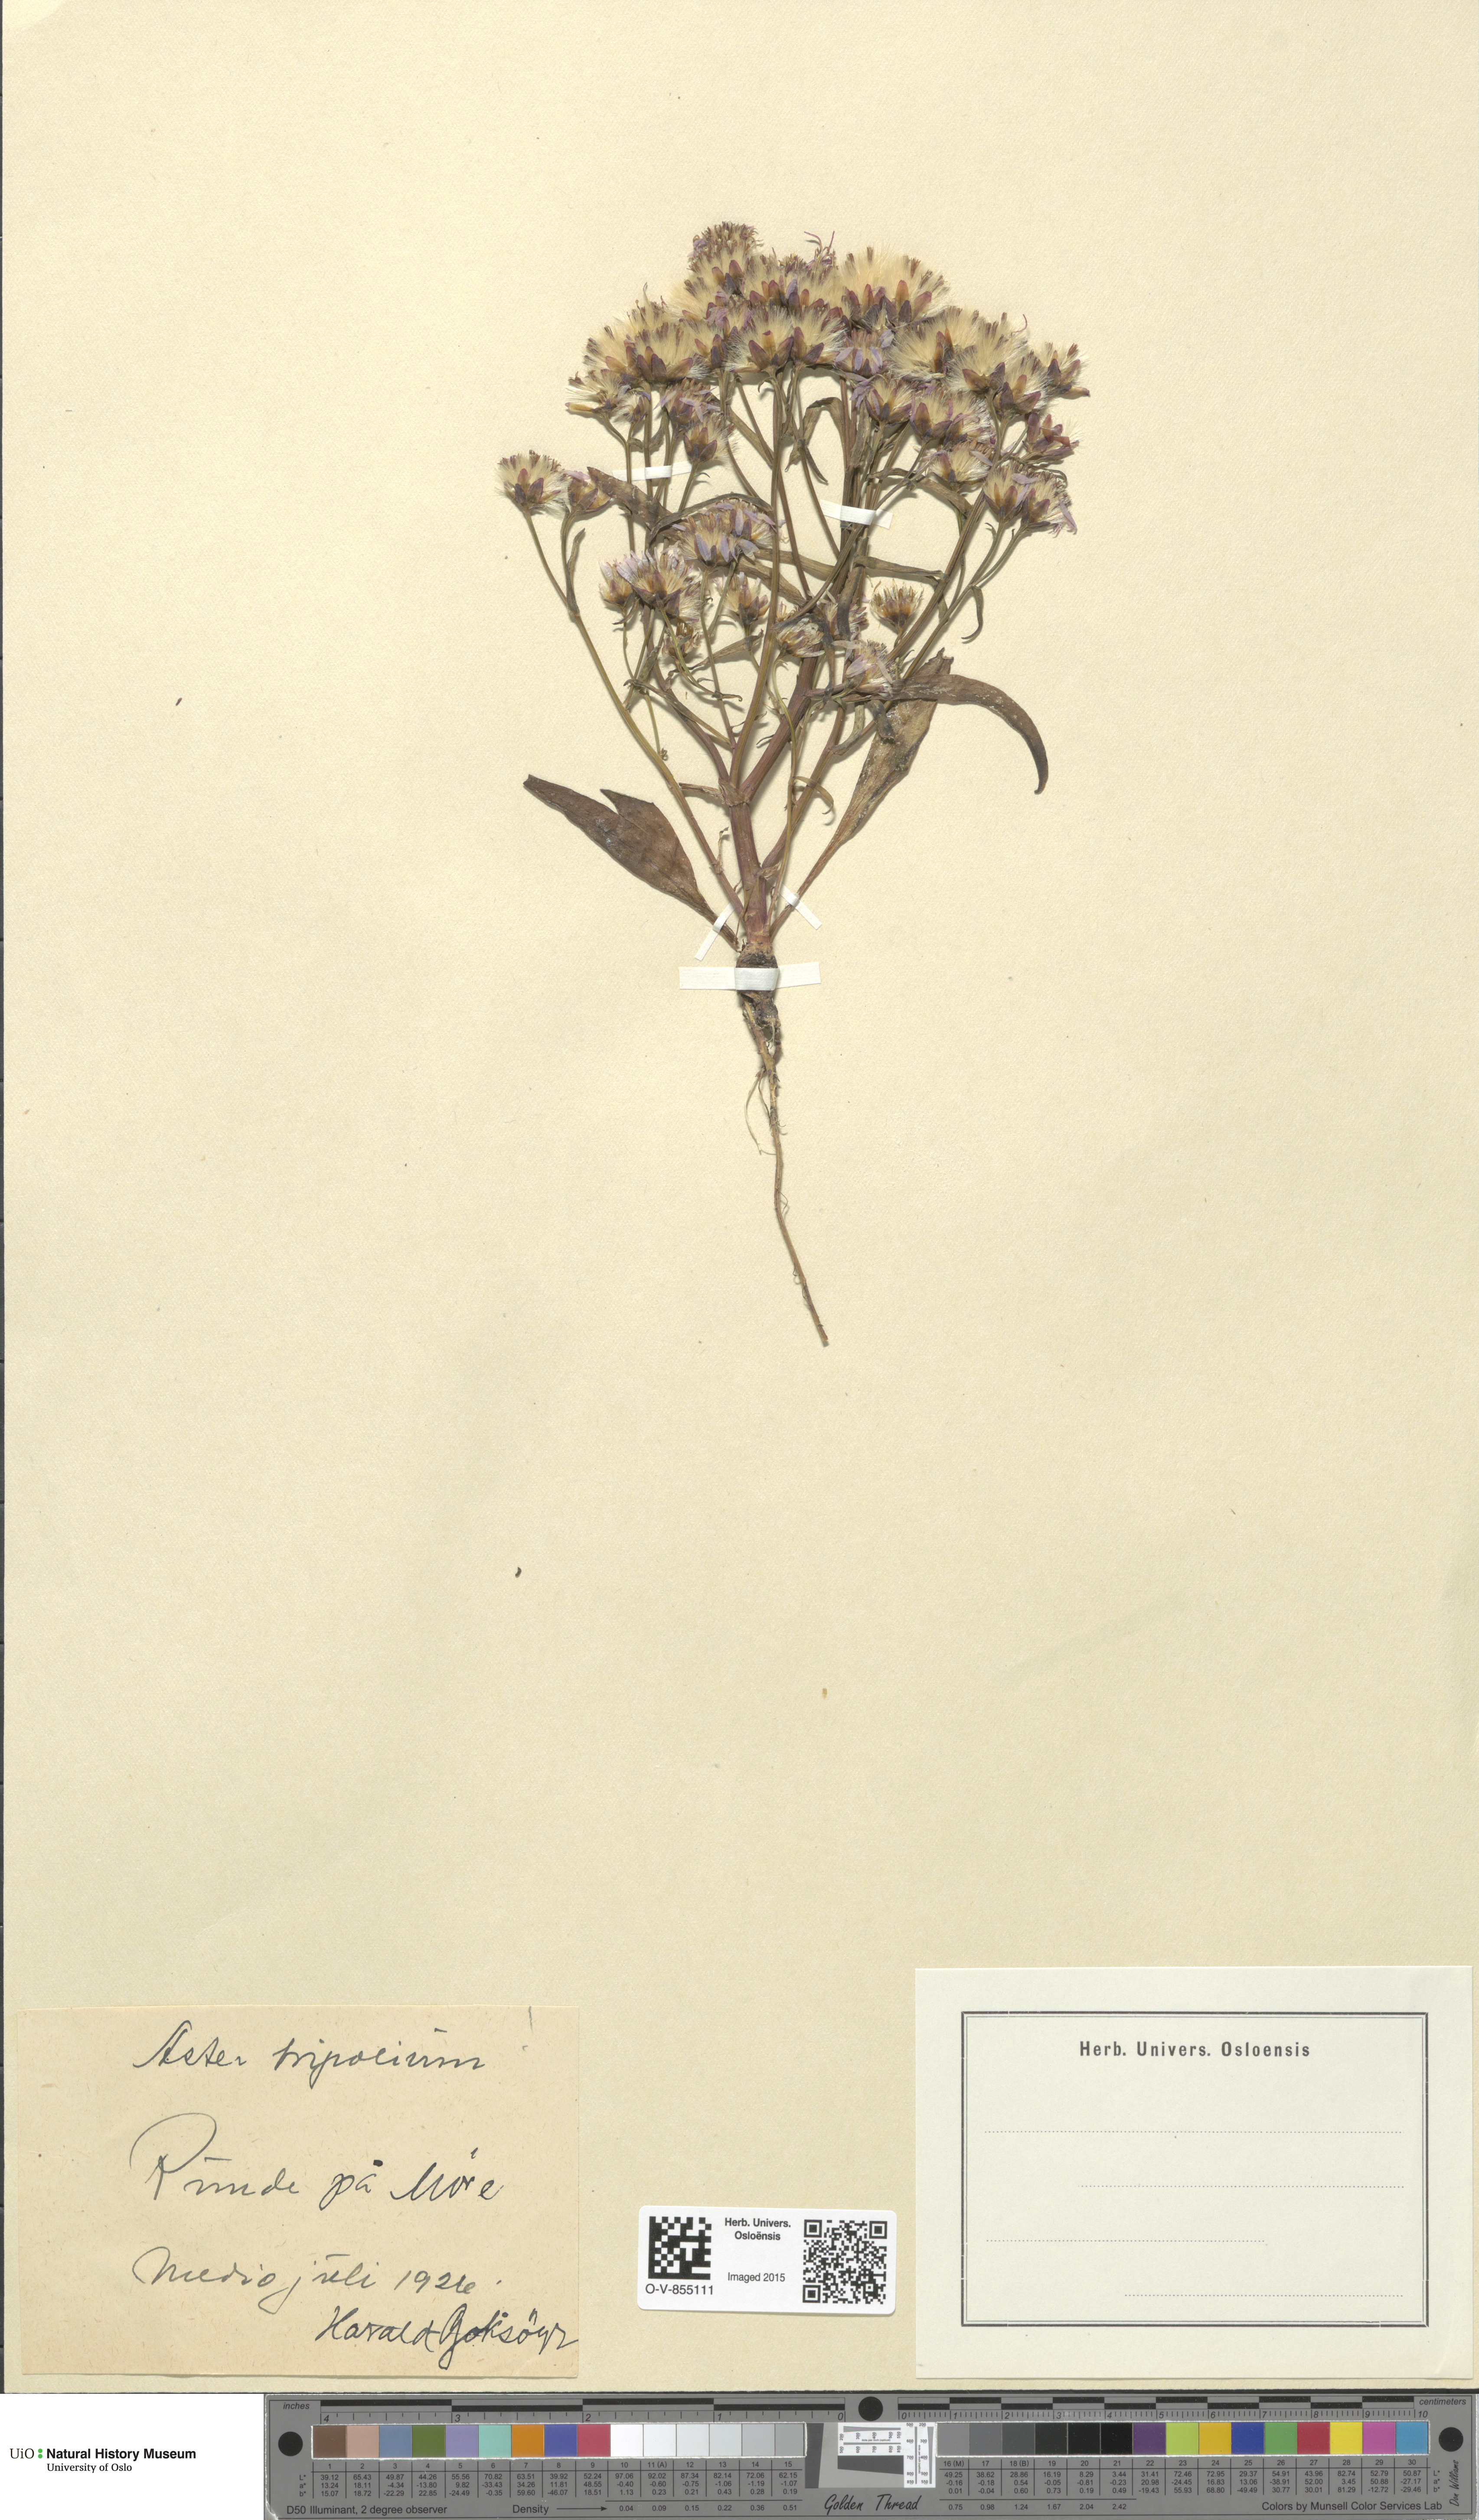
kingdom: Plantae
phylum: Tracheophyta
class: Magnoliopsida
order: Asterales
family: Asteraceae
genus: Tripolium
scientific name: Tripolium pannonicum
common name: Sea aster
